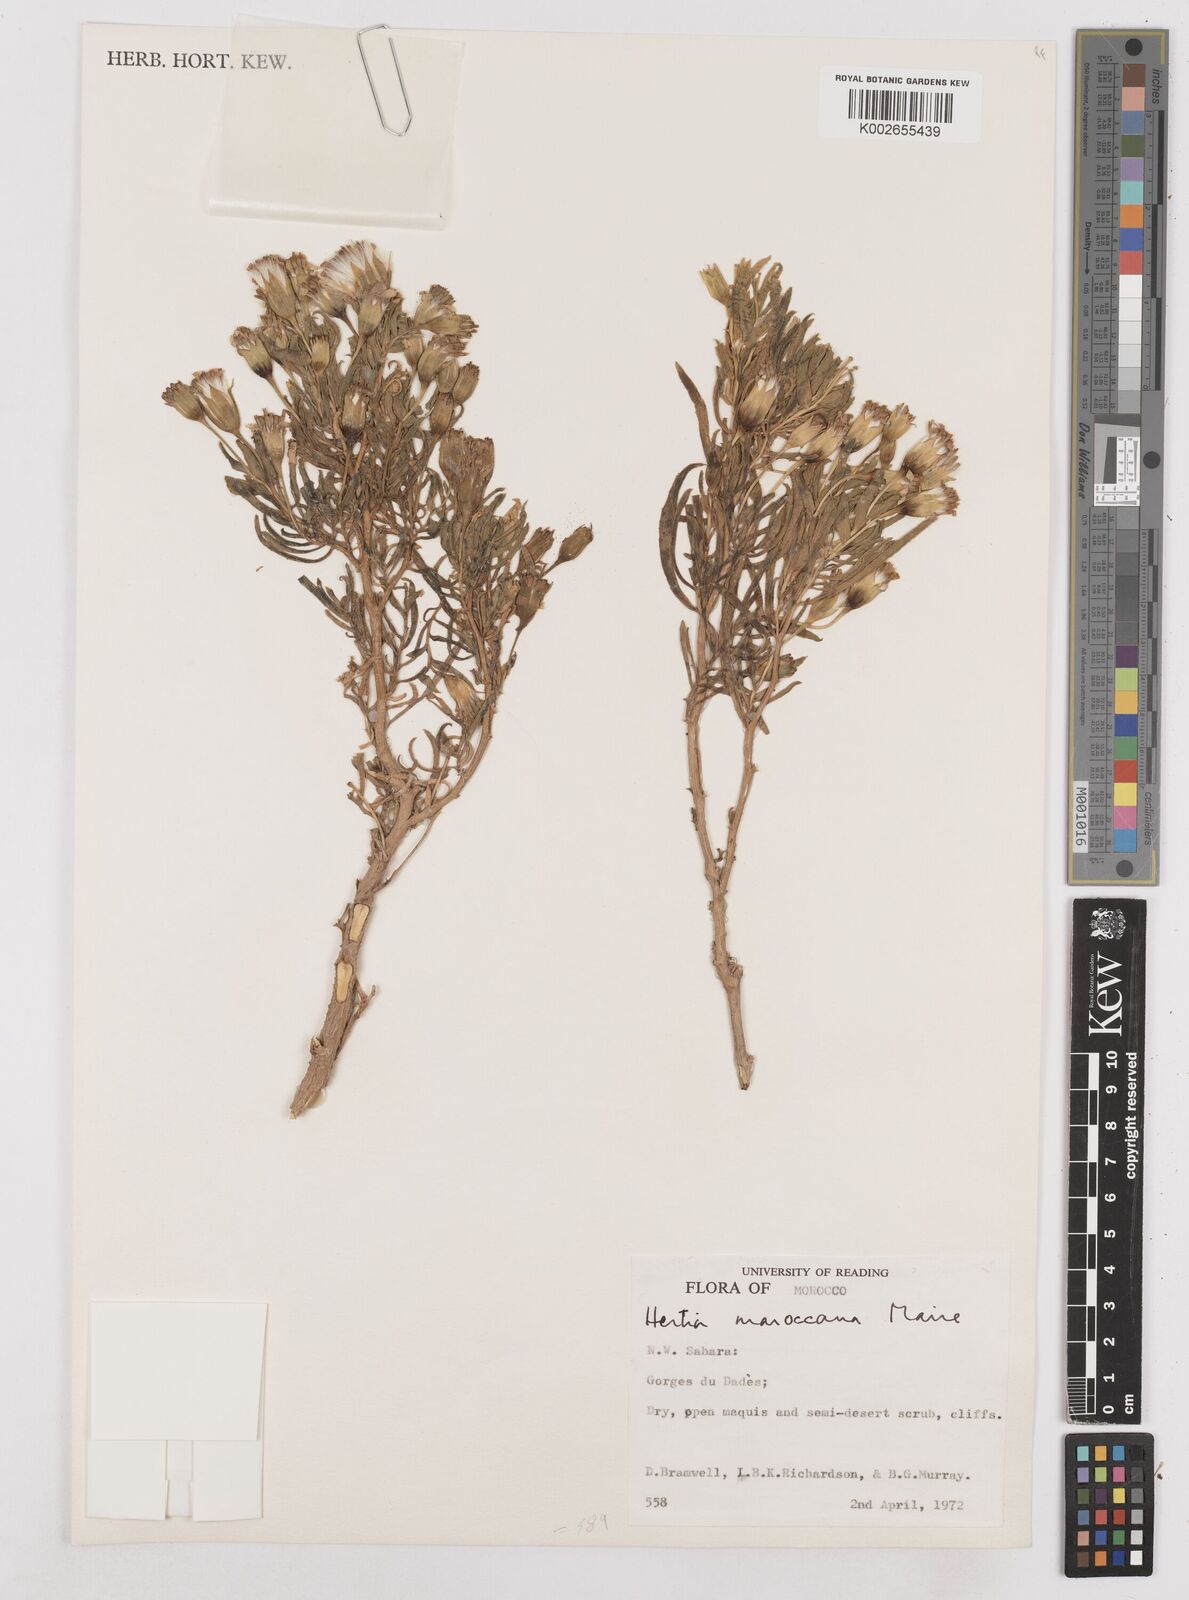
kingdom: Plantae
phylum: Tracheophyta
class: Magnoliopsida
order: Asterales
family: Asteraceae
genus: Hertia
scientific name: Hertia maroccana
